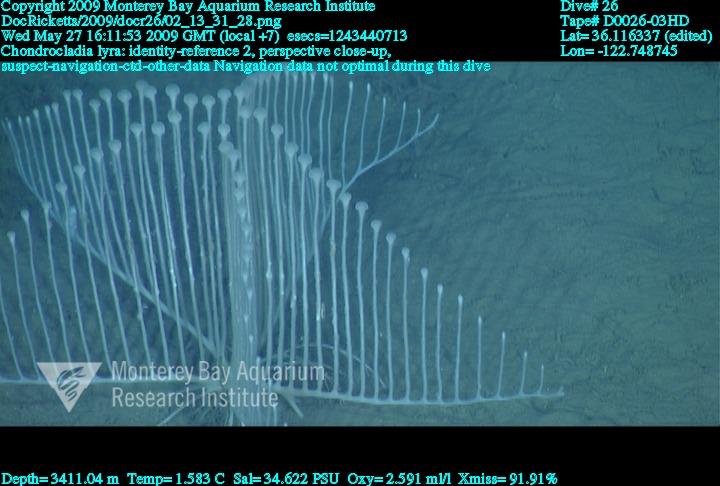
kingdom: Animalia
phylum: Porifera
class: Demospongiae
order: Poecilosclerida
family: Cladorhizidae
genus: Chondrocladia
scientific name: Chondrocladia lyra
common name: Harp sponge
